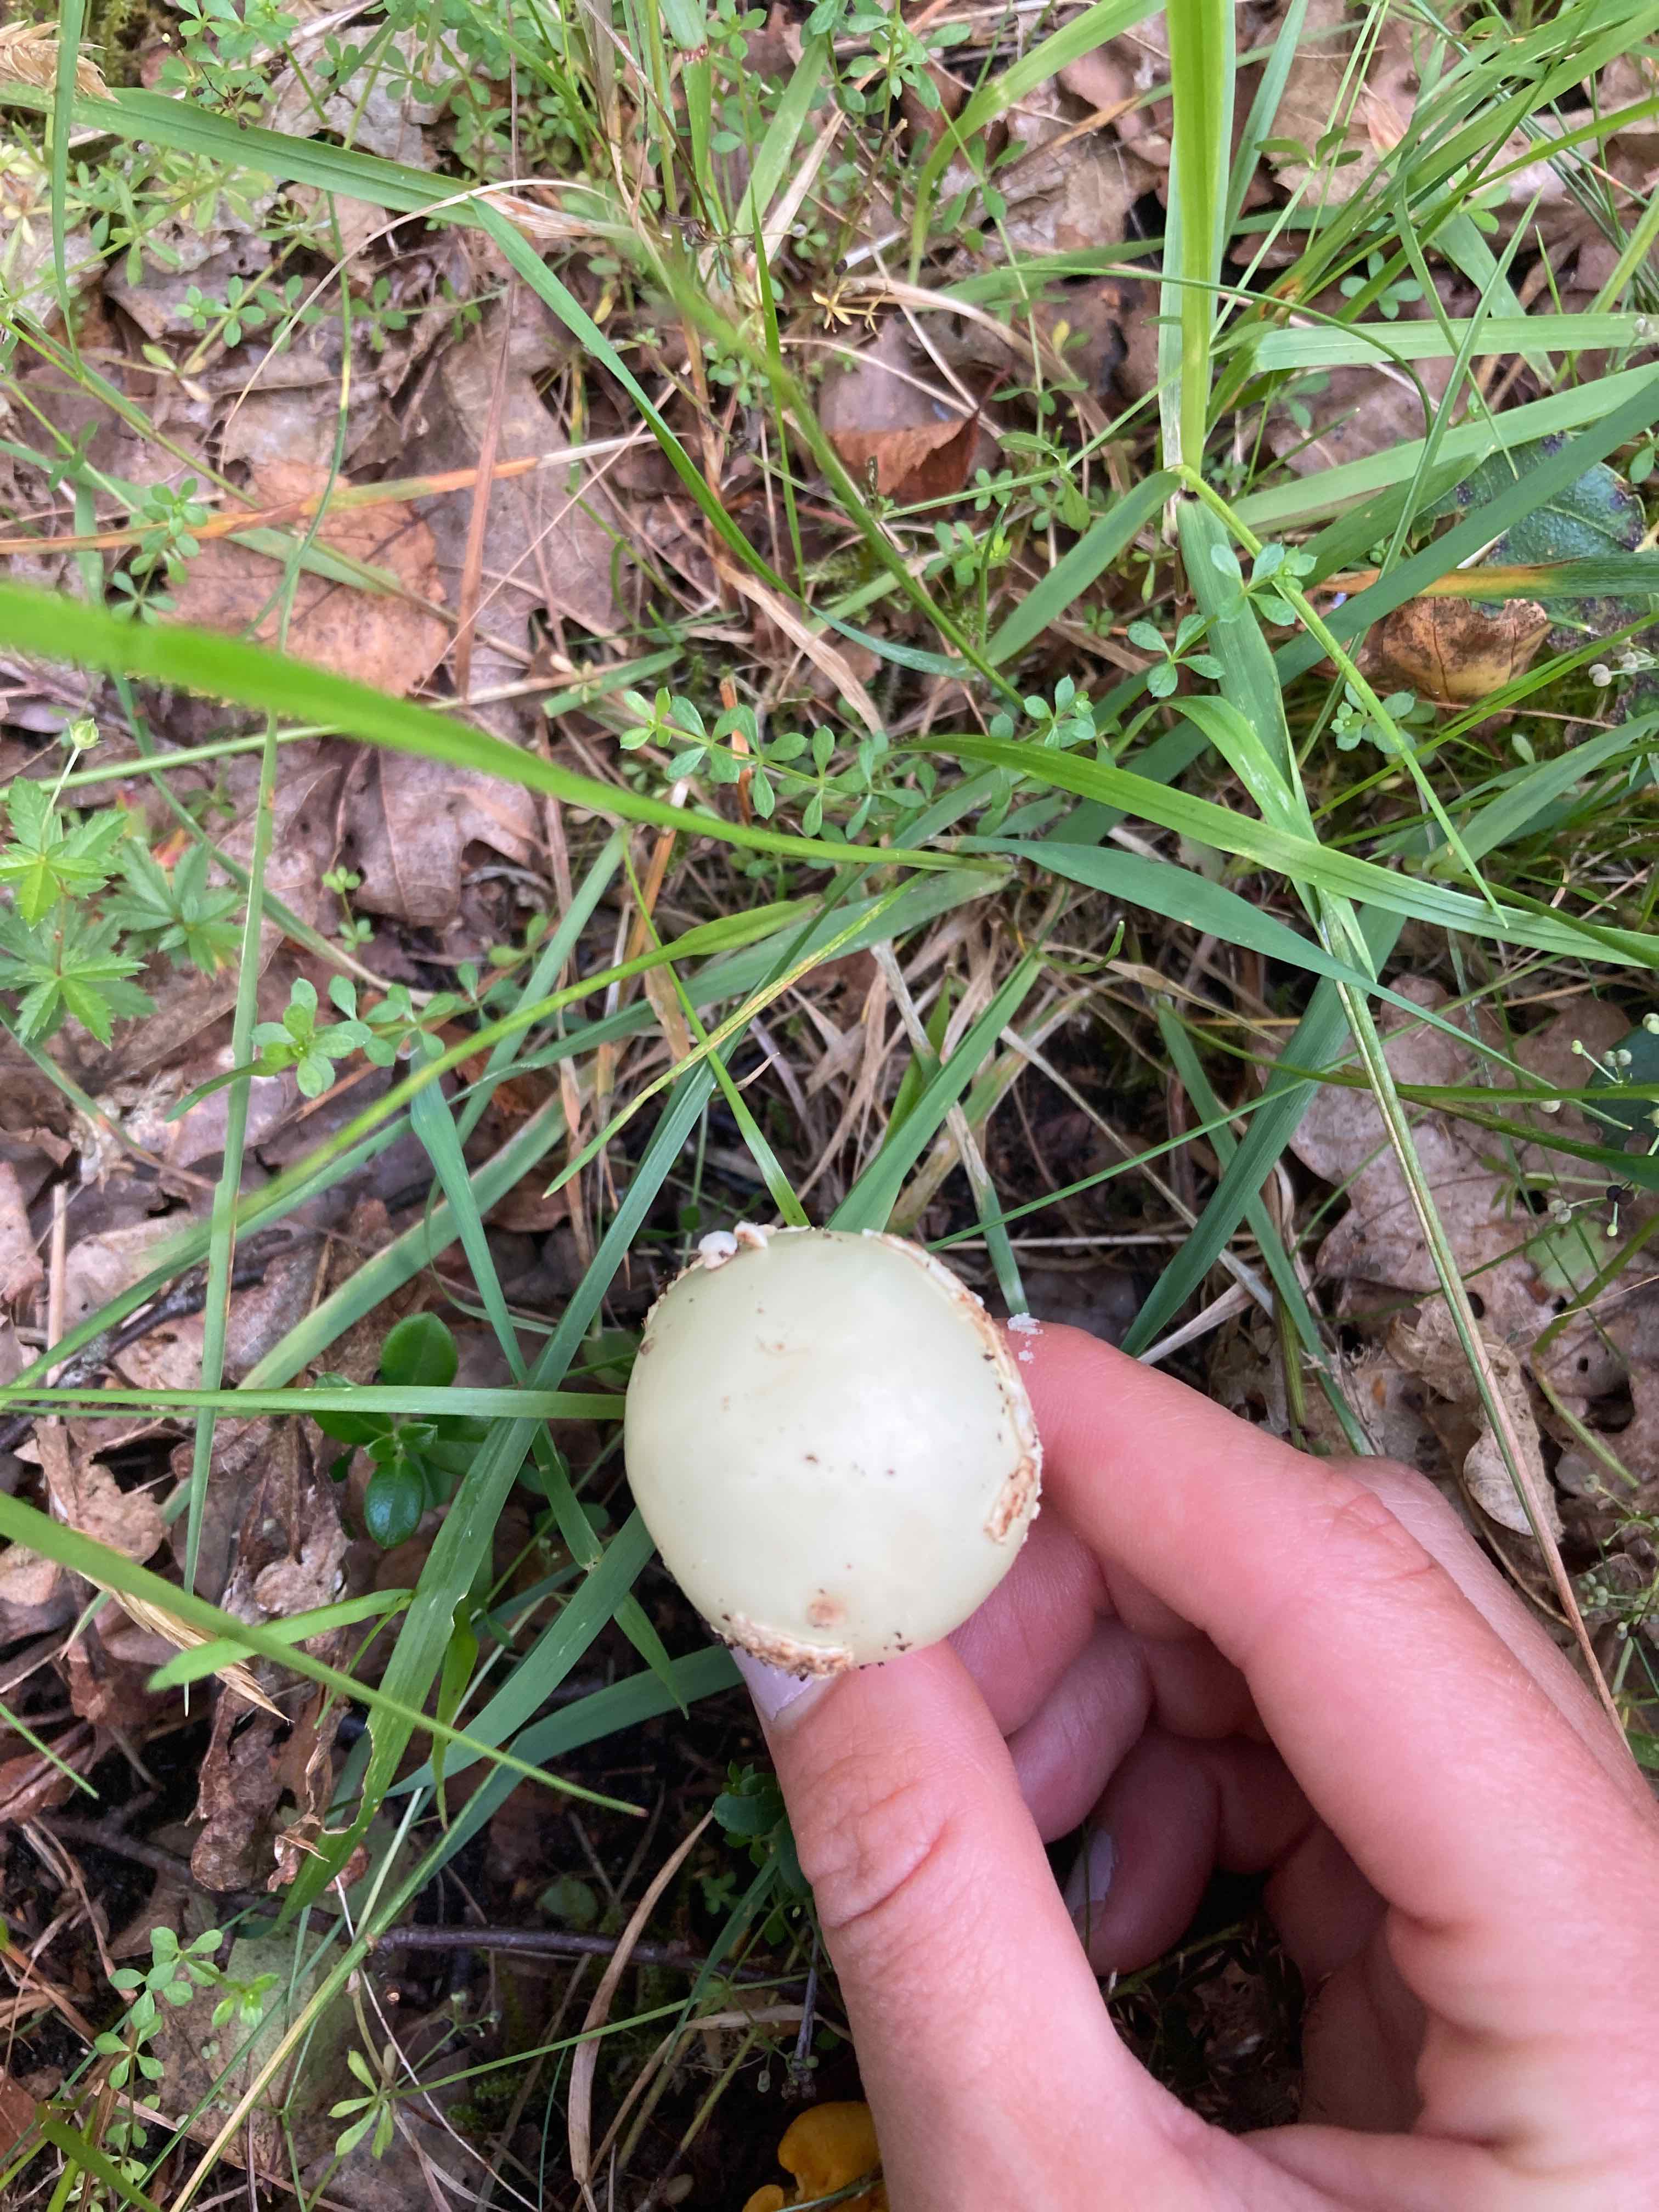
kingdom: Fungi
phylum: Basidiomycota
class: Agaricomycetes
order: Agaricales
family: Amanitaceae
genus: Amanita
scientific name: Amanita citrina
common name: kugleknoldet fluesvamp
